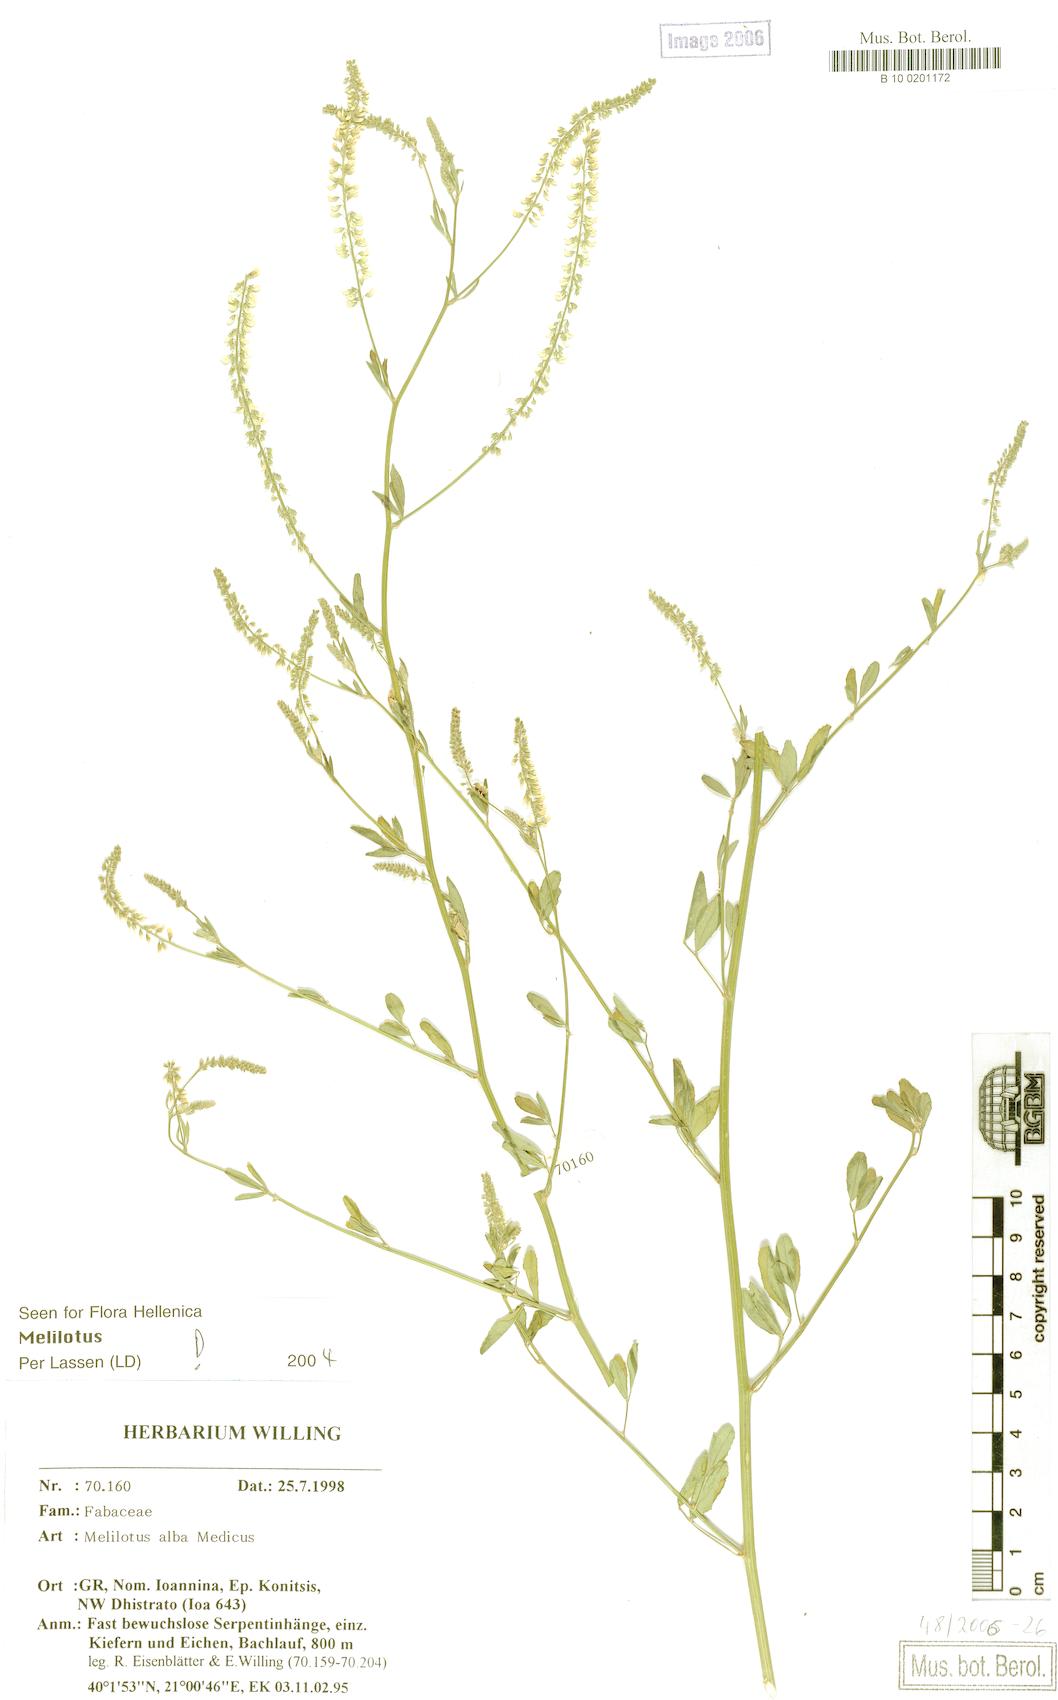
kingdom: Plantae
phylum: Tracheophyta
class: Magnoliopsida
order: Fabales
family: Fabaceae
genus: Melilotus
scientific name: Melilotus albus
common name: White melilot
